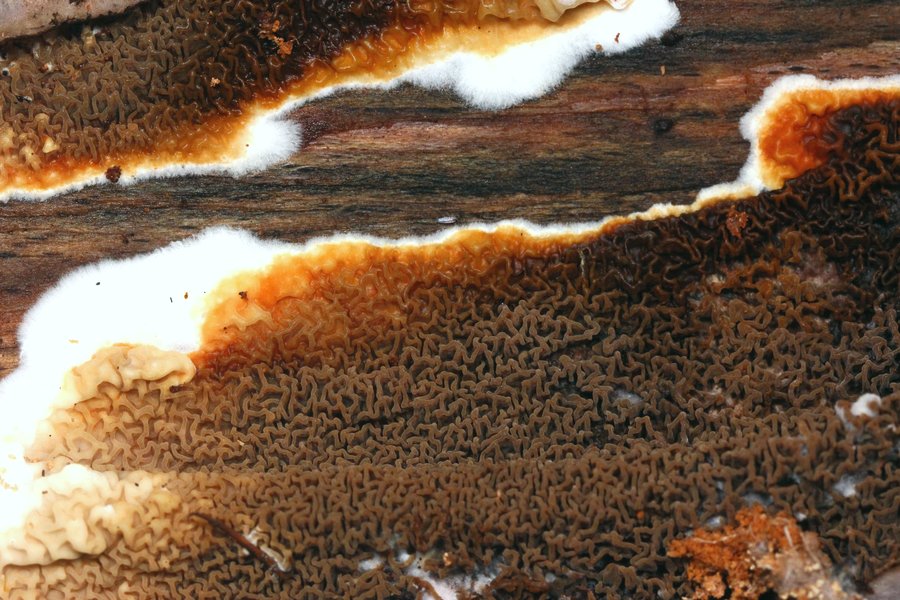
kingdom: Fungi
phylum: Basidiomycota
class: Agaricomycetes
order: Boletales
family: Serpulaceae
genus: Serpula
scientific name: Serpula himantioides
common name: tyndkødet hussvamp
